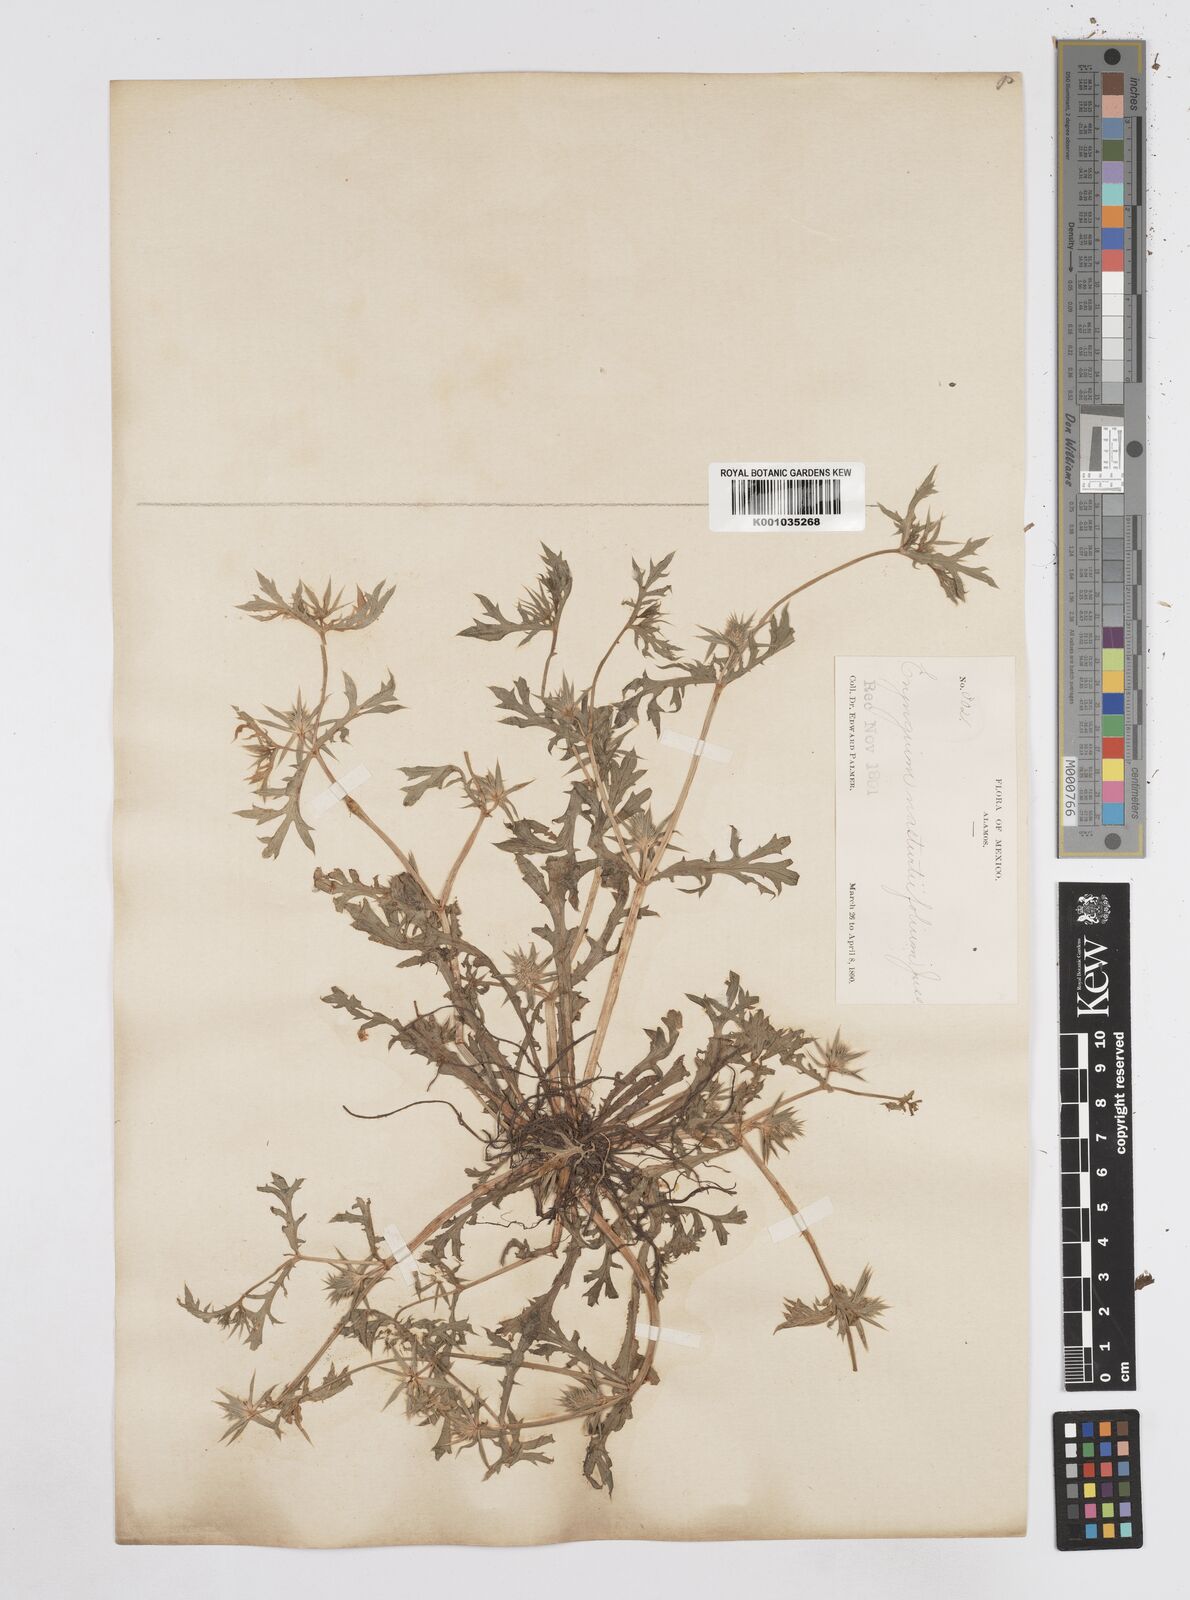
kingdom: Plantae
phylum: Tracheophyta
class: Magnoliopsida
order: Apiales
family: Apiaceae
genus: Eryngium
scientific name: Eryngium nasturtiifolium
